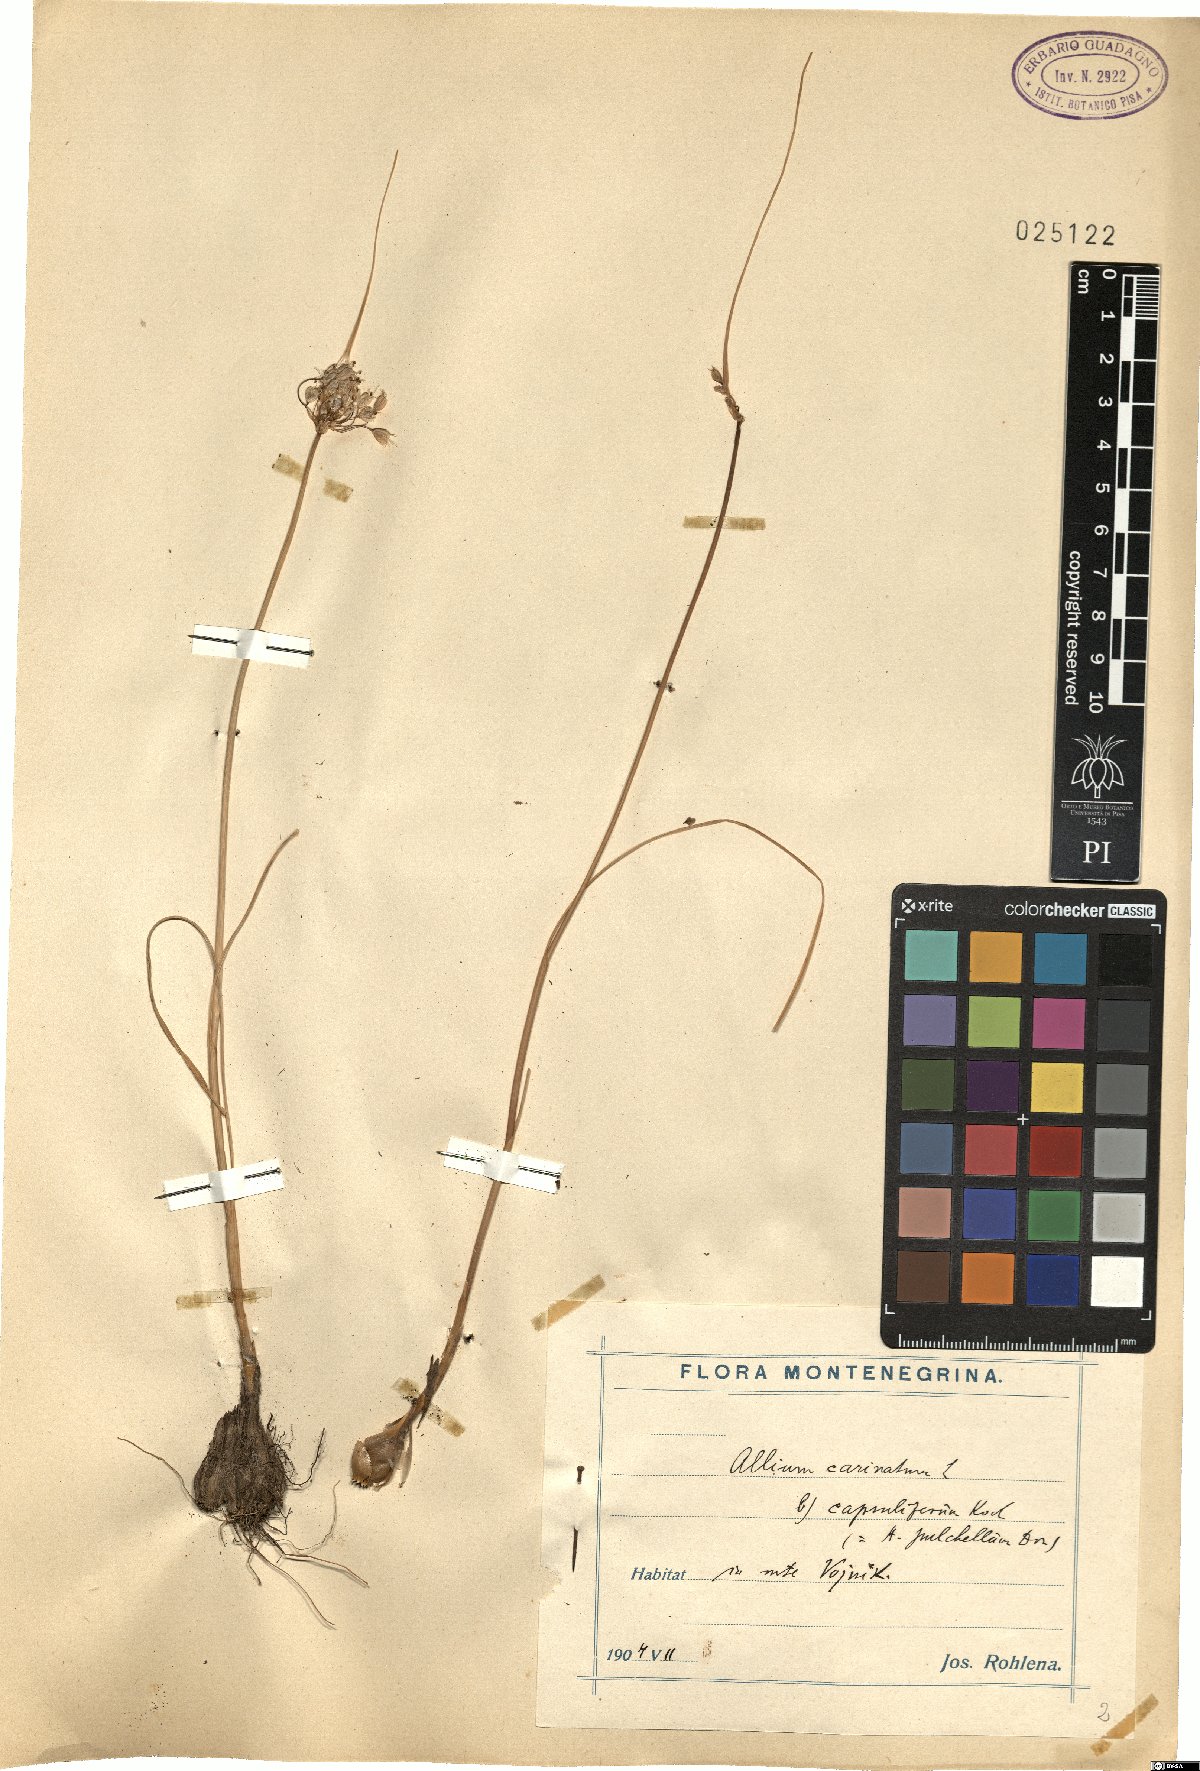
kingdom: Plantae
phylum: Tracheophyta
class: Liliopsida
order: Asparagales
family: Amaryllidaceae
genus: Allium
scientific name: Allium carinatum
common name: Keeled garlic
